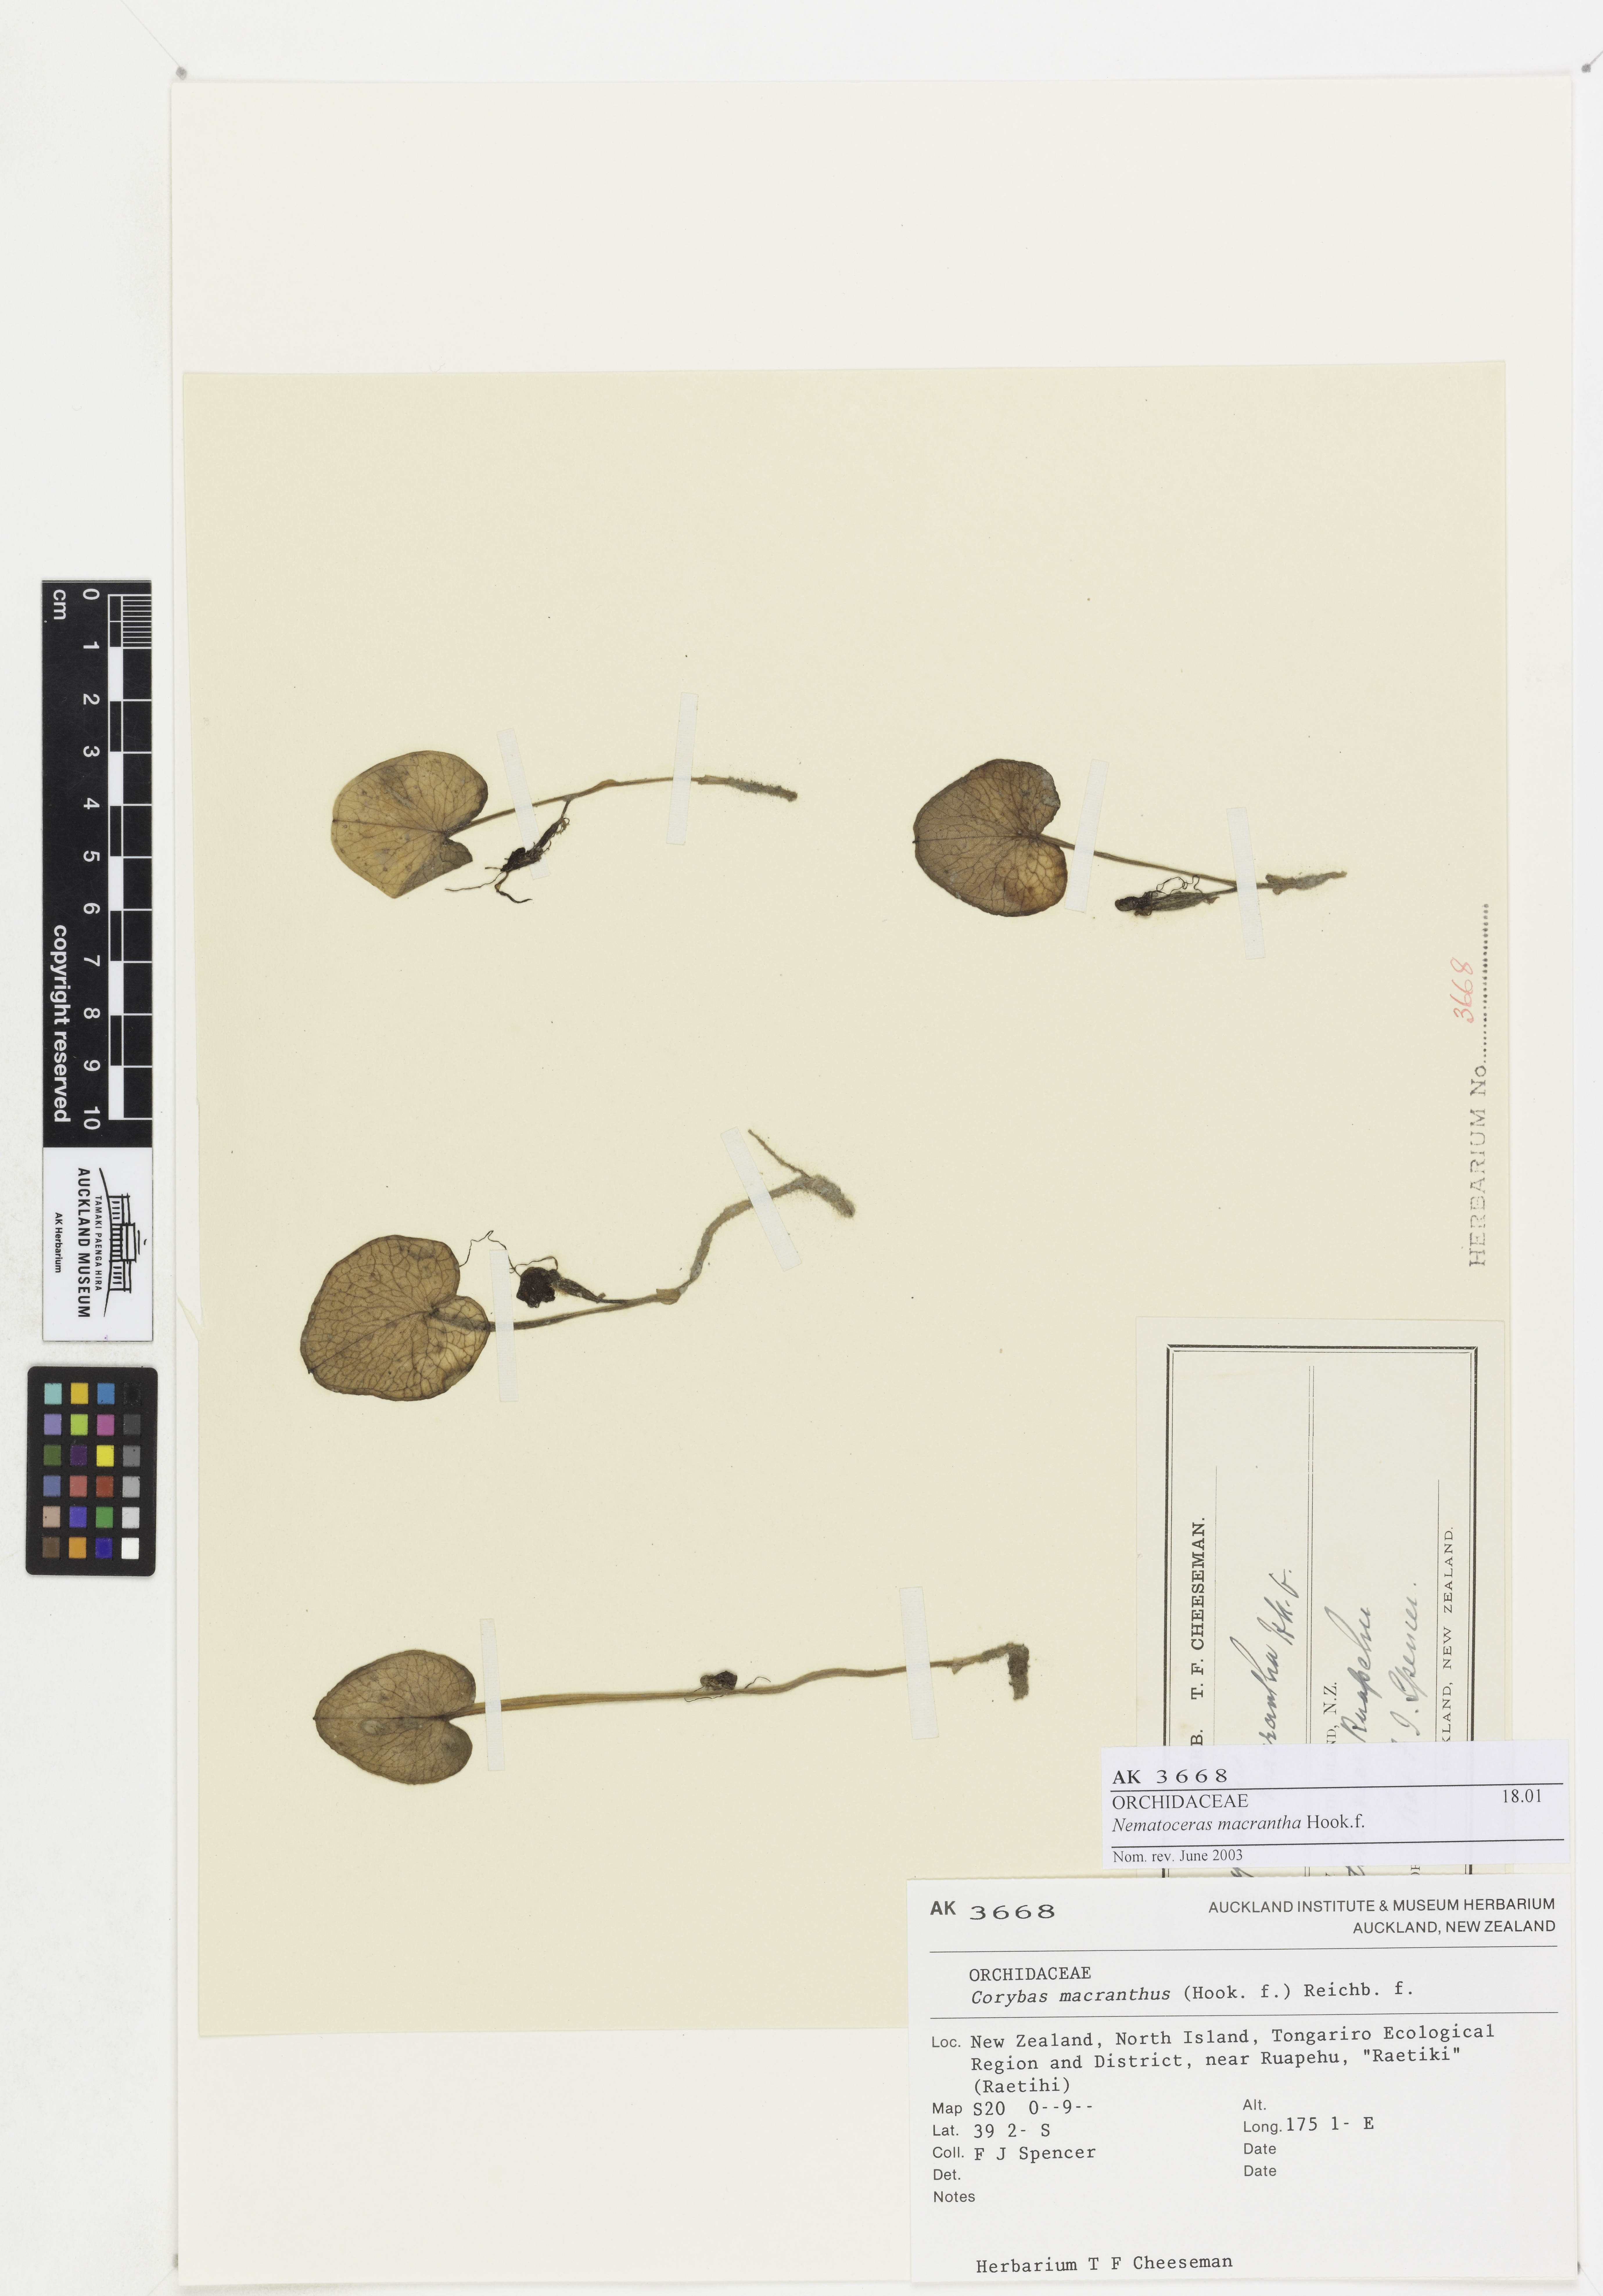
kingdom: Plantae
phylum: Tracheophyta
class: Liliopsida
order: Asparagales
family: Orchidaceae
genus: Corybas
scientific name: Corybas macranthus
